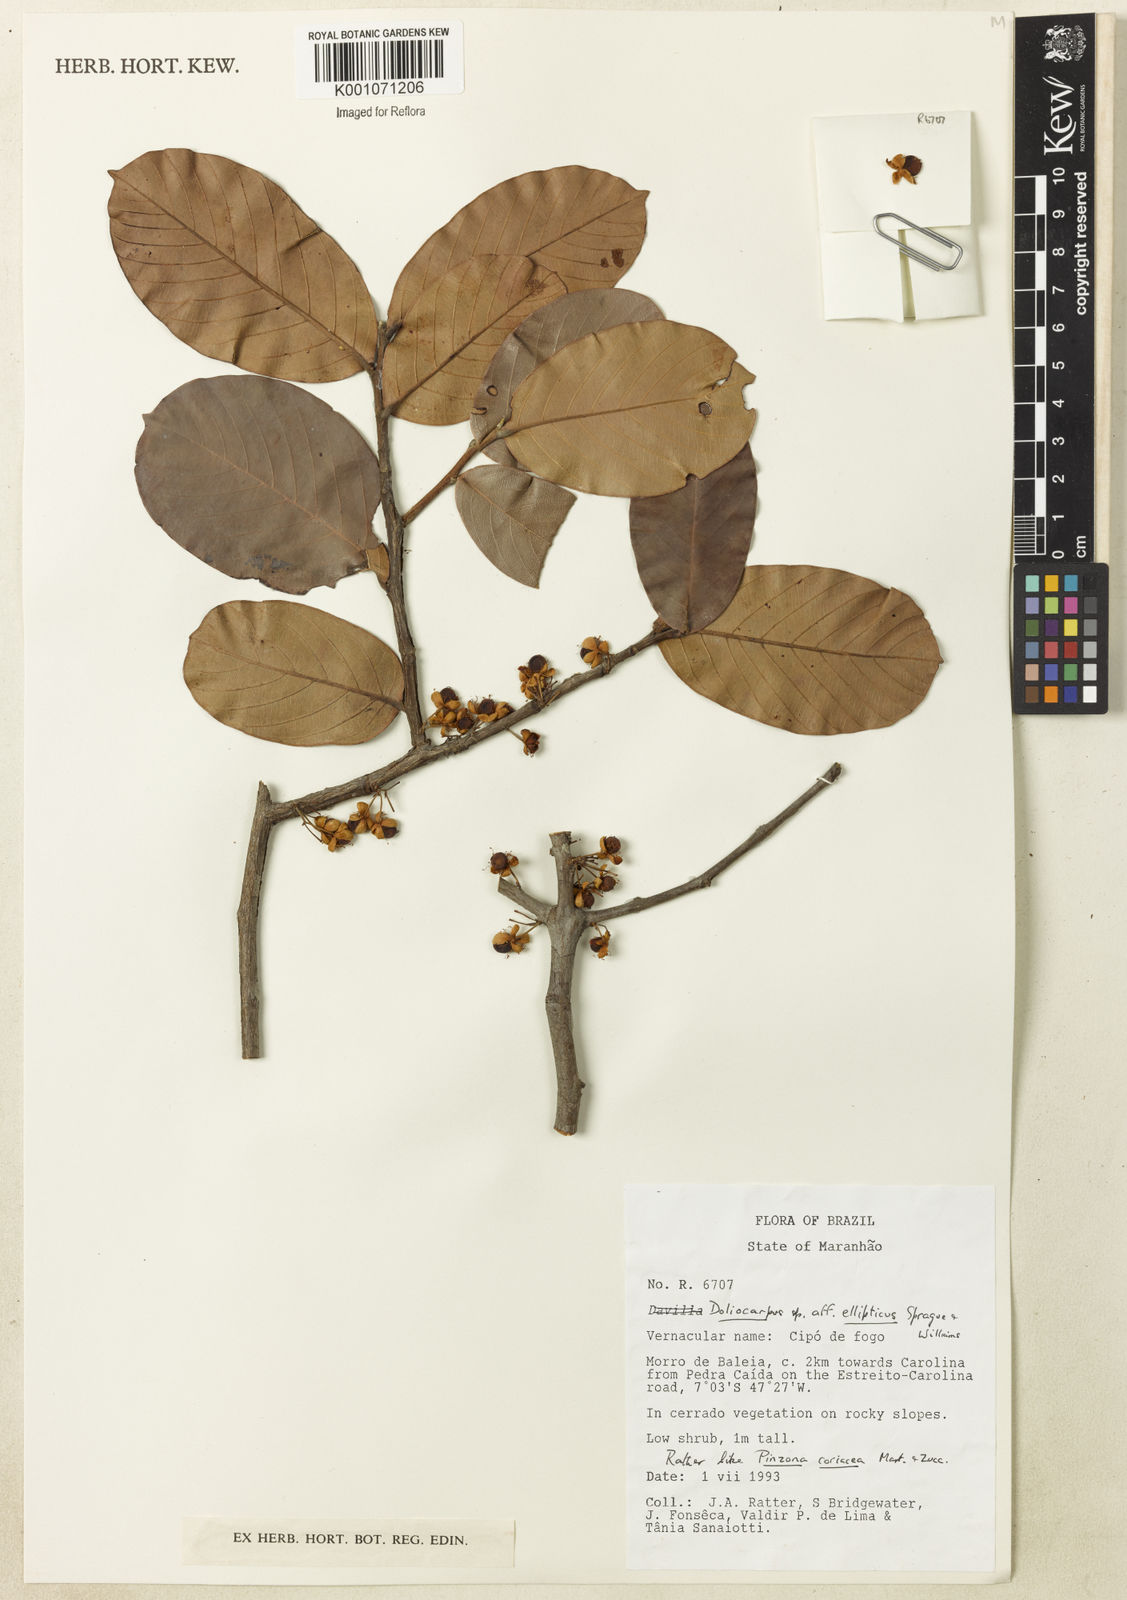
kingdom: Plantae
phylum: Tracheophyta
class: Magnoliopsida
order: Dilleniales
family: Dilleniaceae
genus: Doliocarpus
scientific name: Doliocarpus
